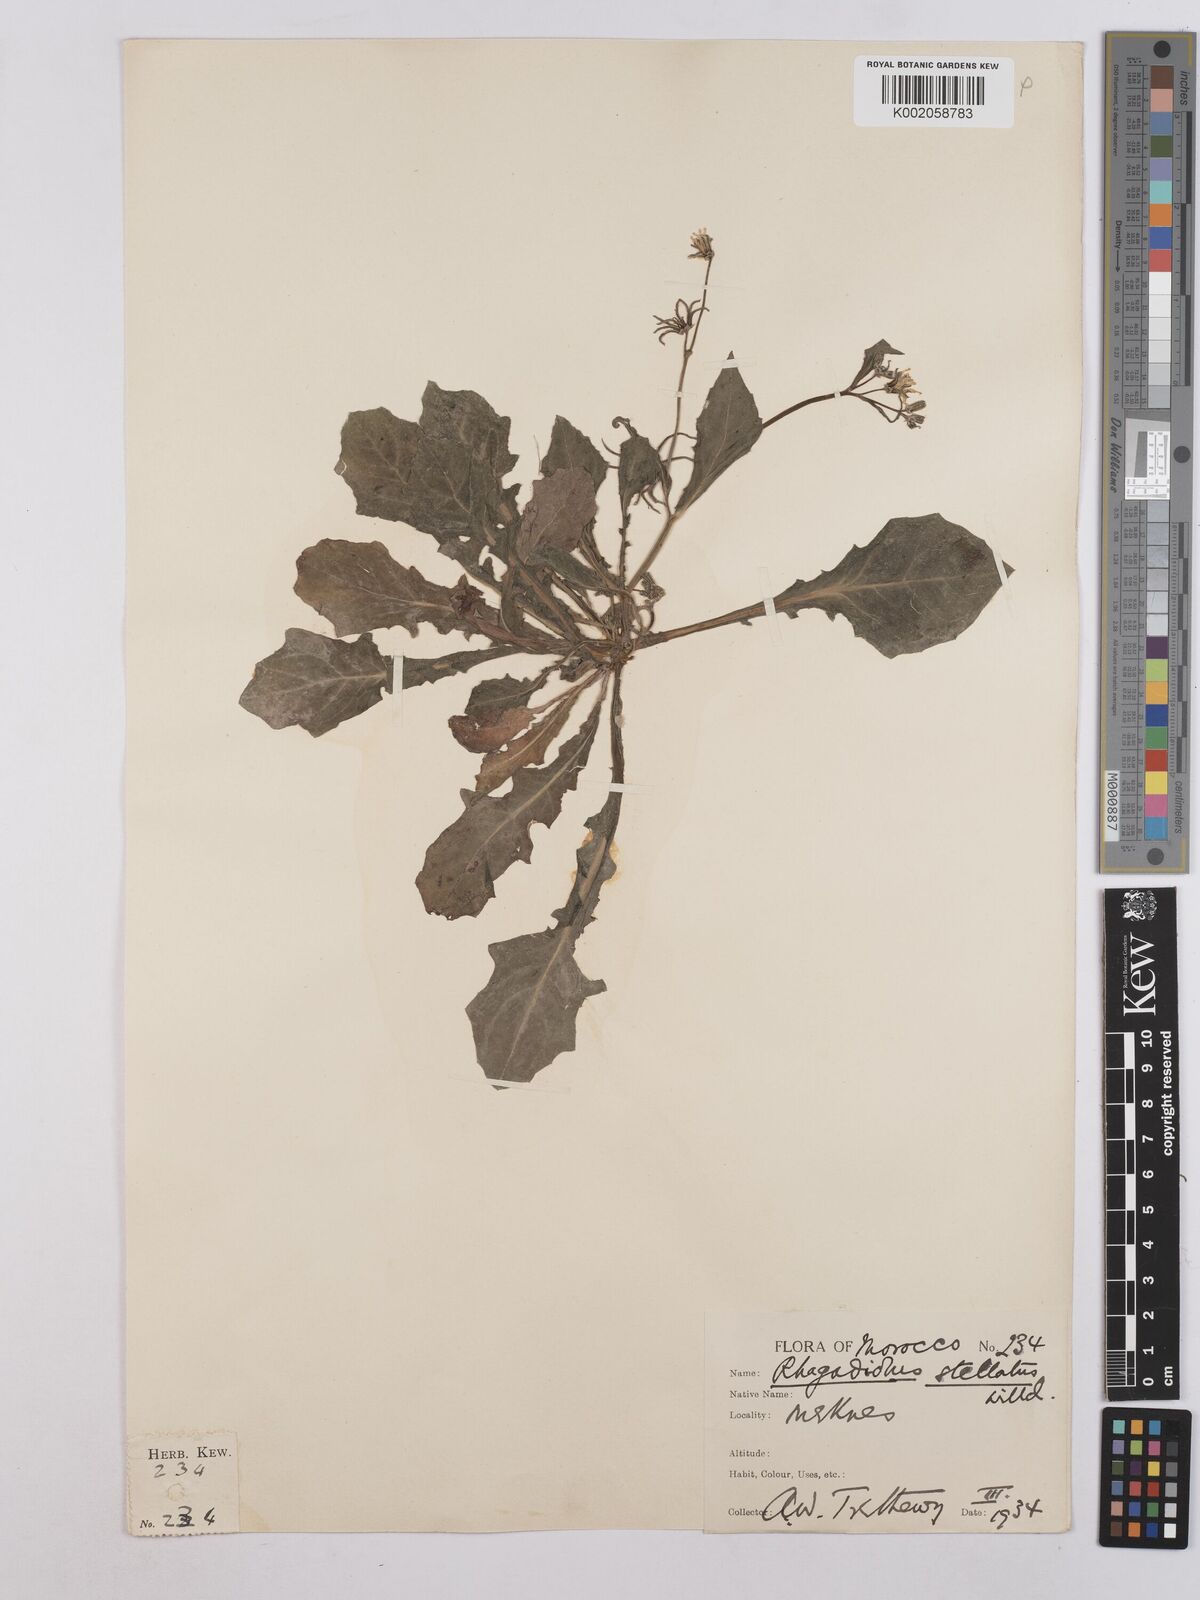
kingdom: Plantae
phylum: Tracheophyta
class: Magnoliopsida
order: Asterales
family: Asteraceae
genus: Rhagadiolus
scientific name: Rhagadiolus stellatus
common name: Star hawkbit
